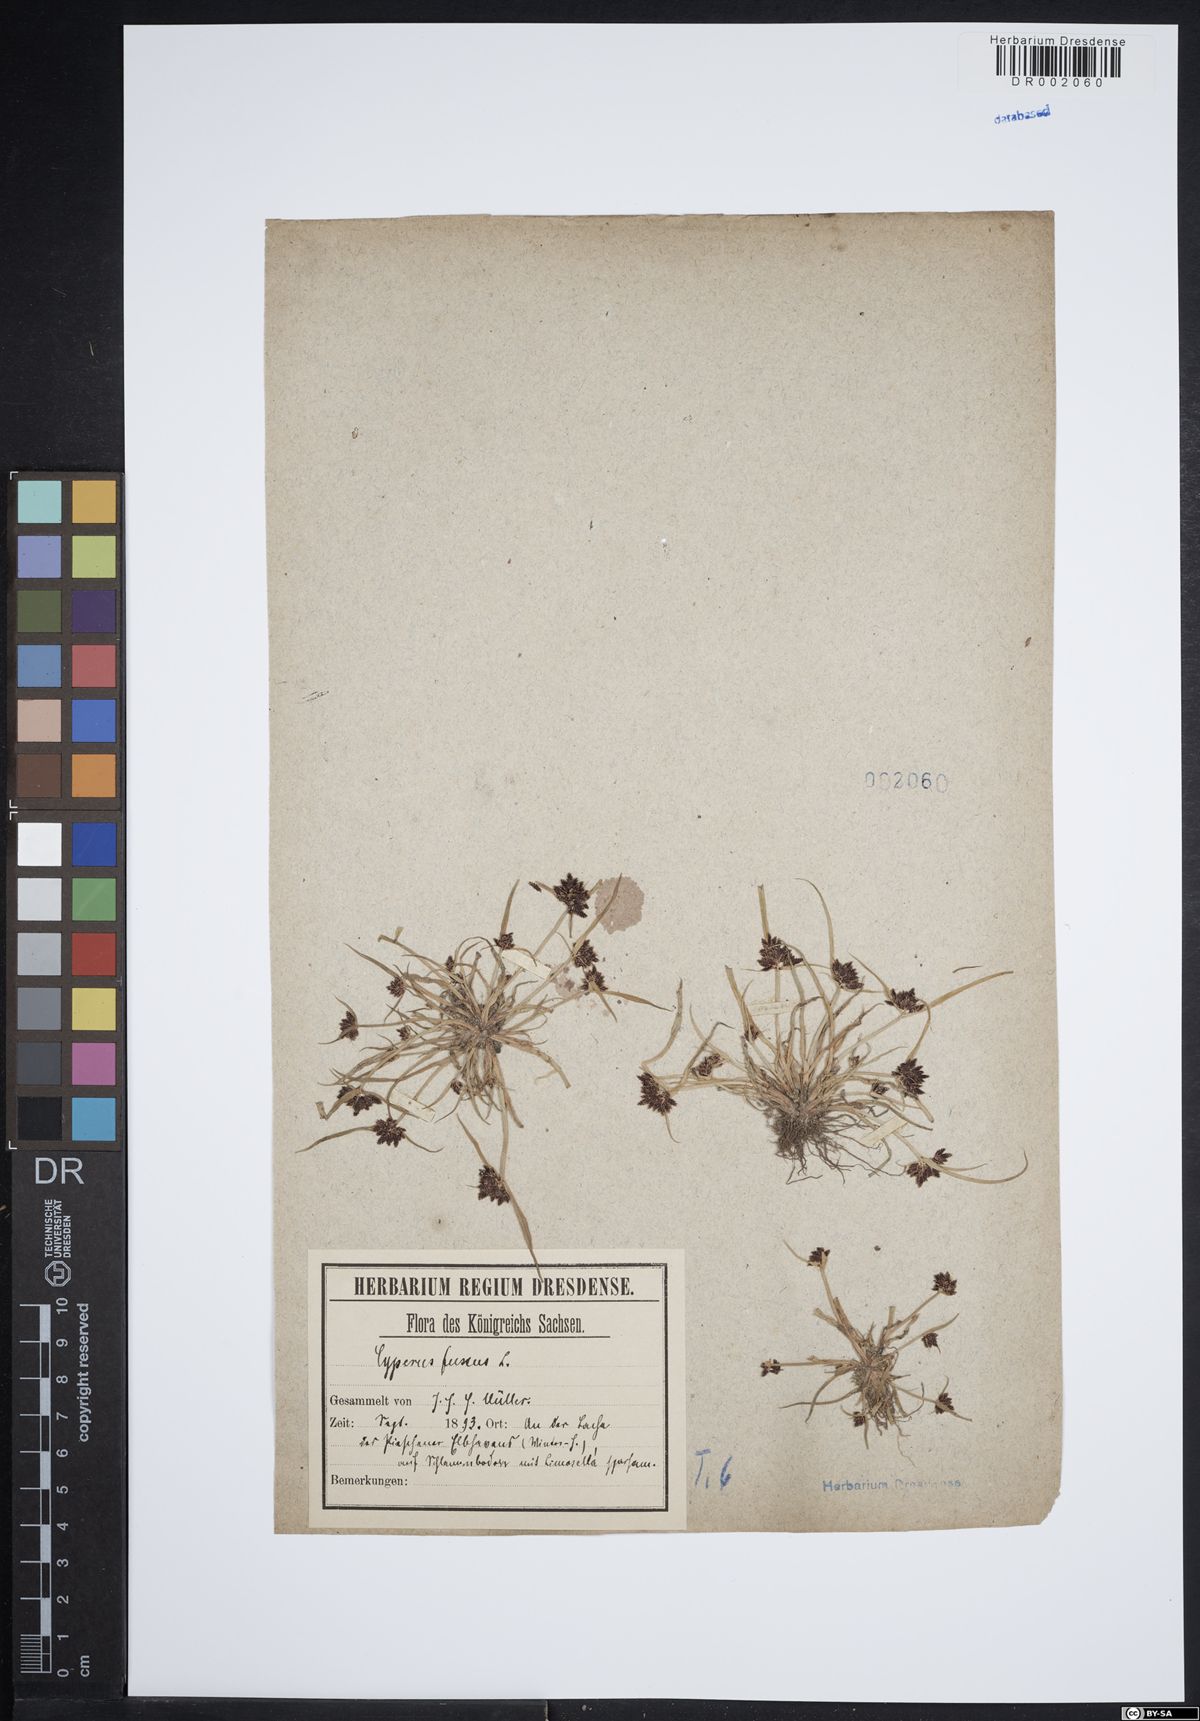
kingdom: Plantae
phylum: Tracheophyta
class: Liliopsida
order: Poales
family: Cyperaceae
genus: Cyperus
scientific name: Cyperus fuscus
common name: Brown galingale
